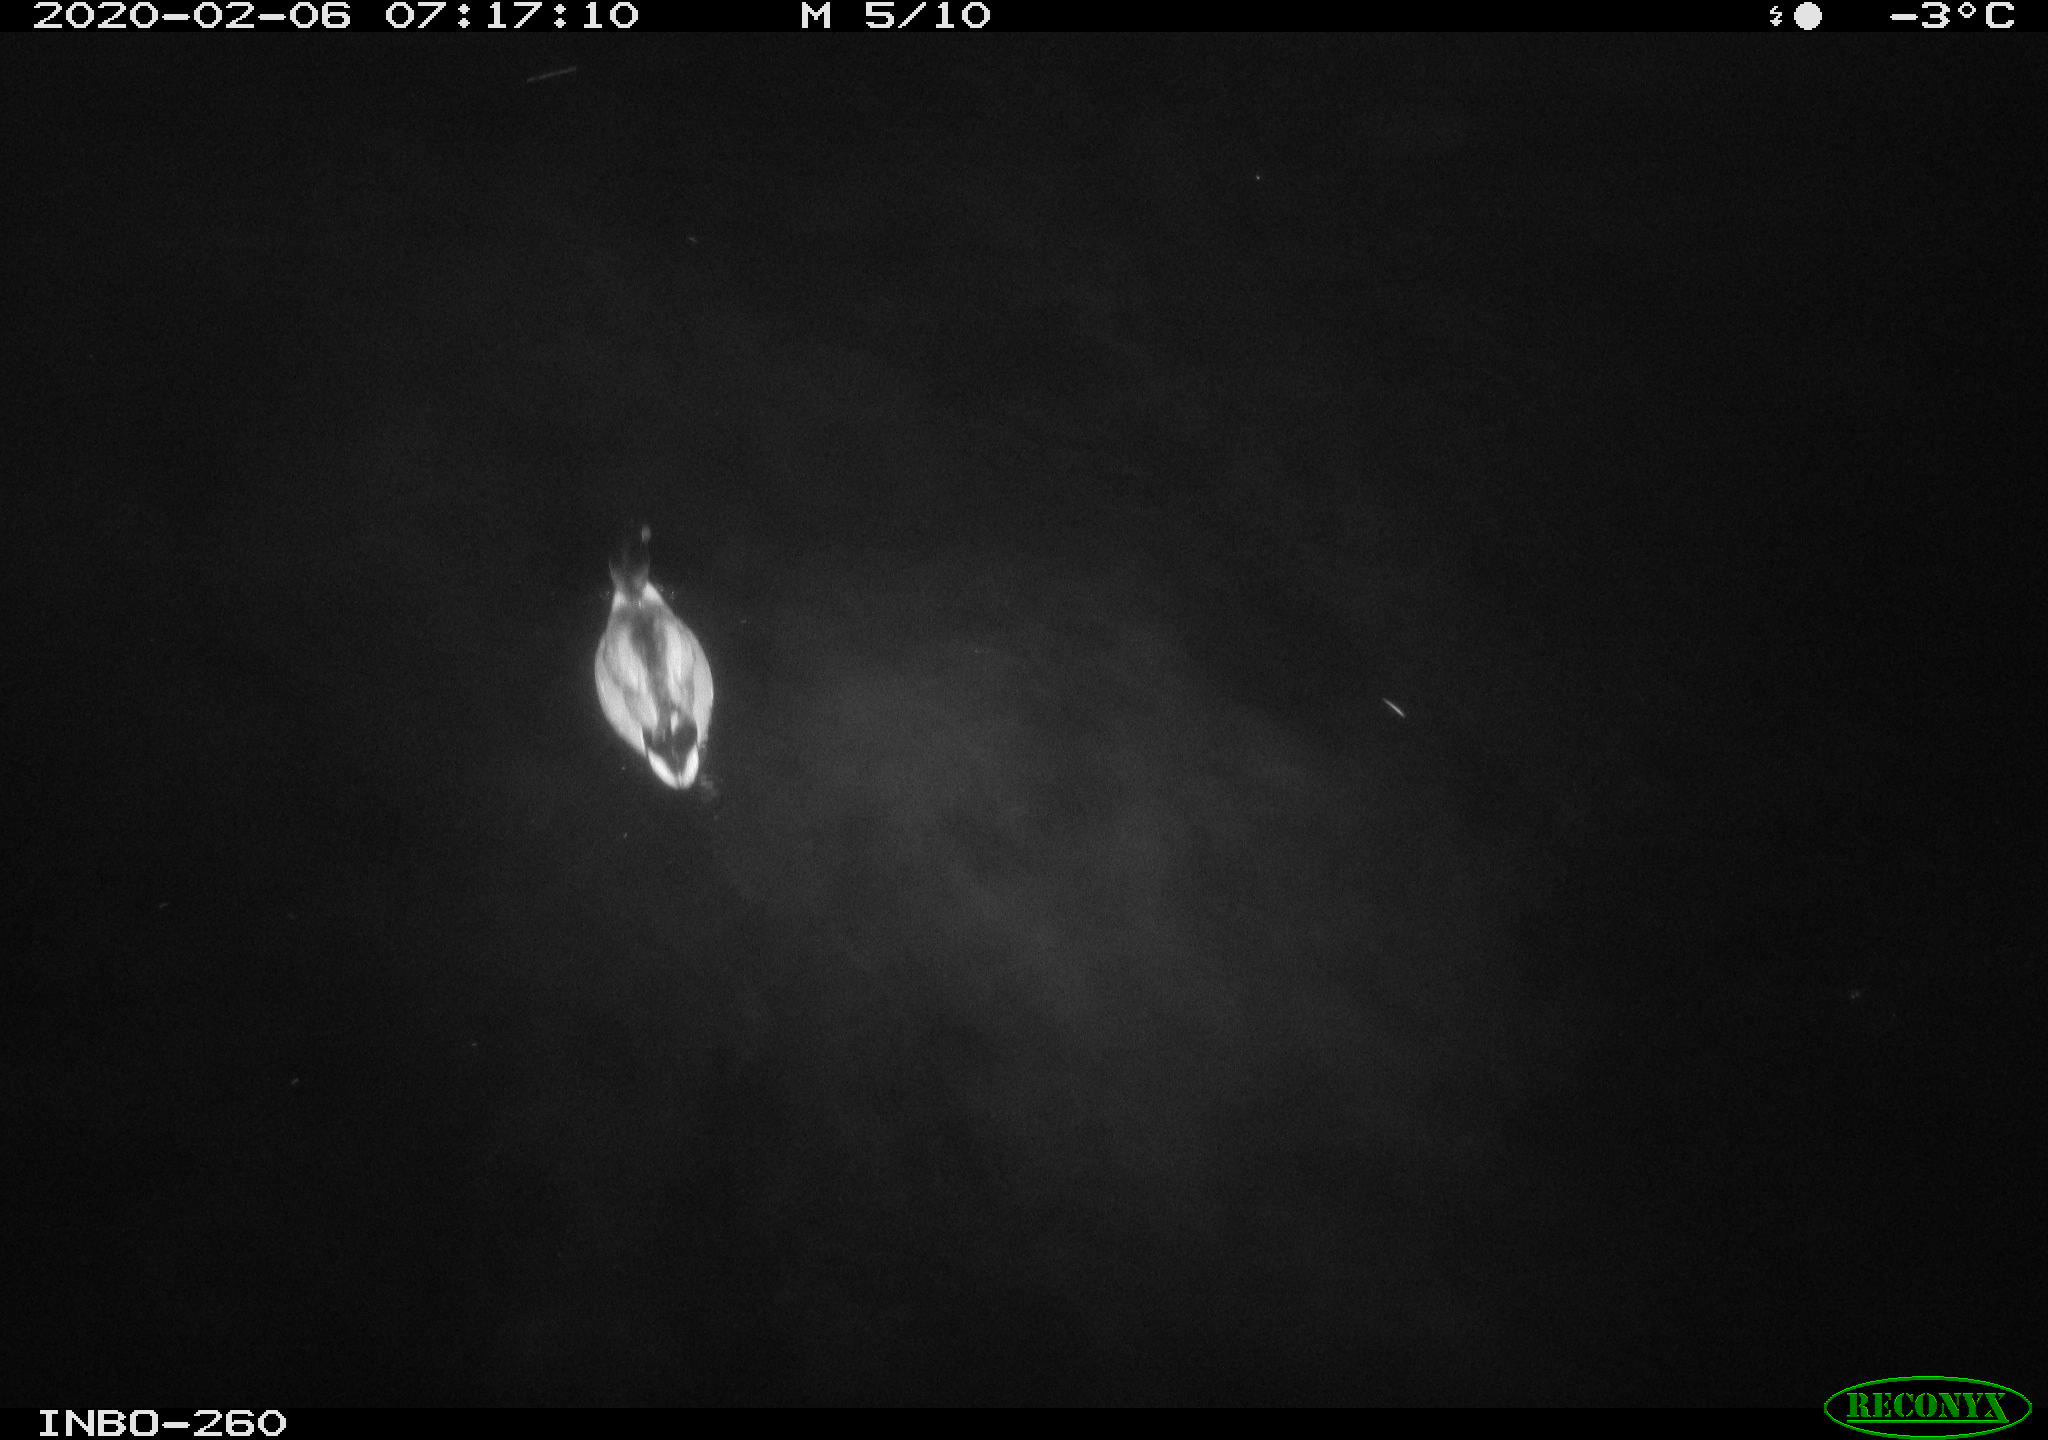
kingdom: Animalia
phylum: Chordata
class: Aves
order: Anseriformes
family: Anatidae
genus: Anas
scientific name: Anas platyrhynchos
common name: Mallard
